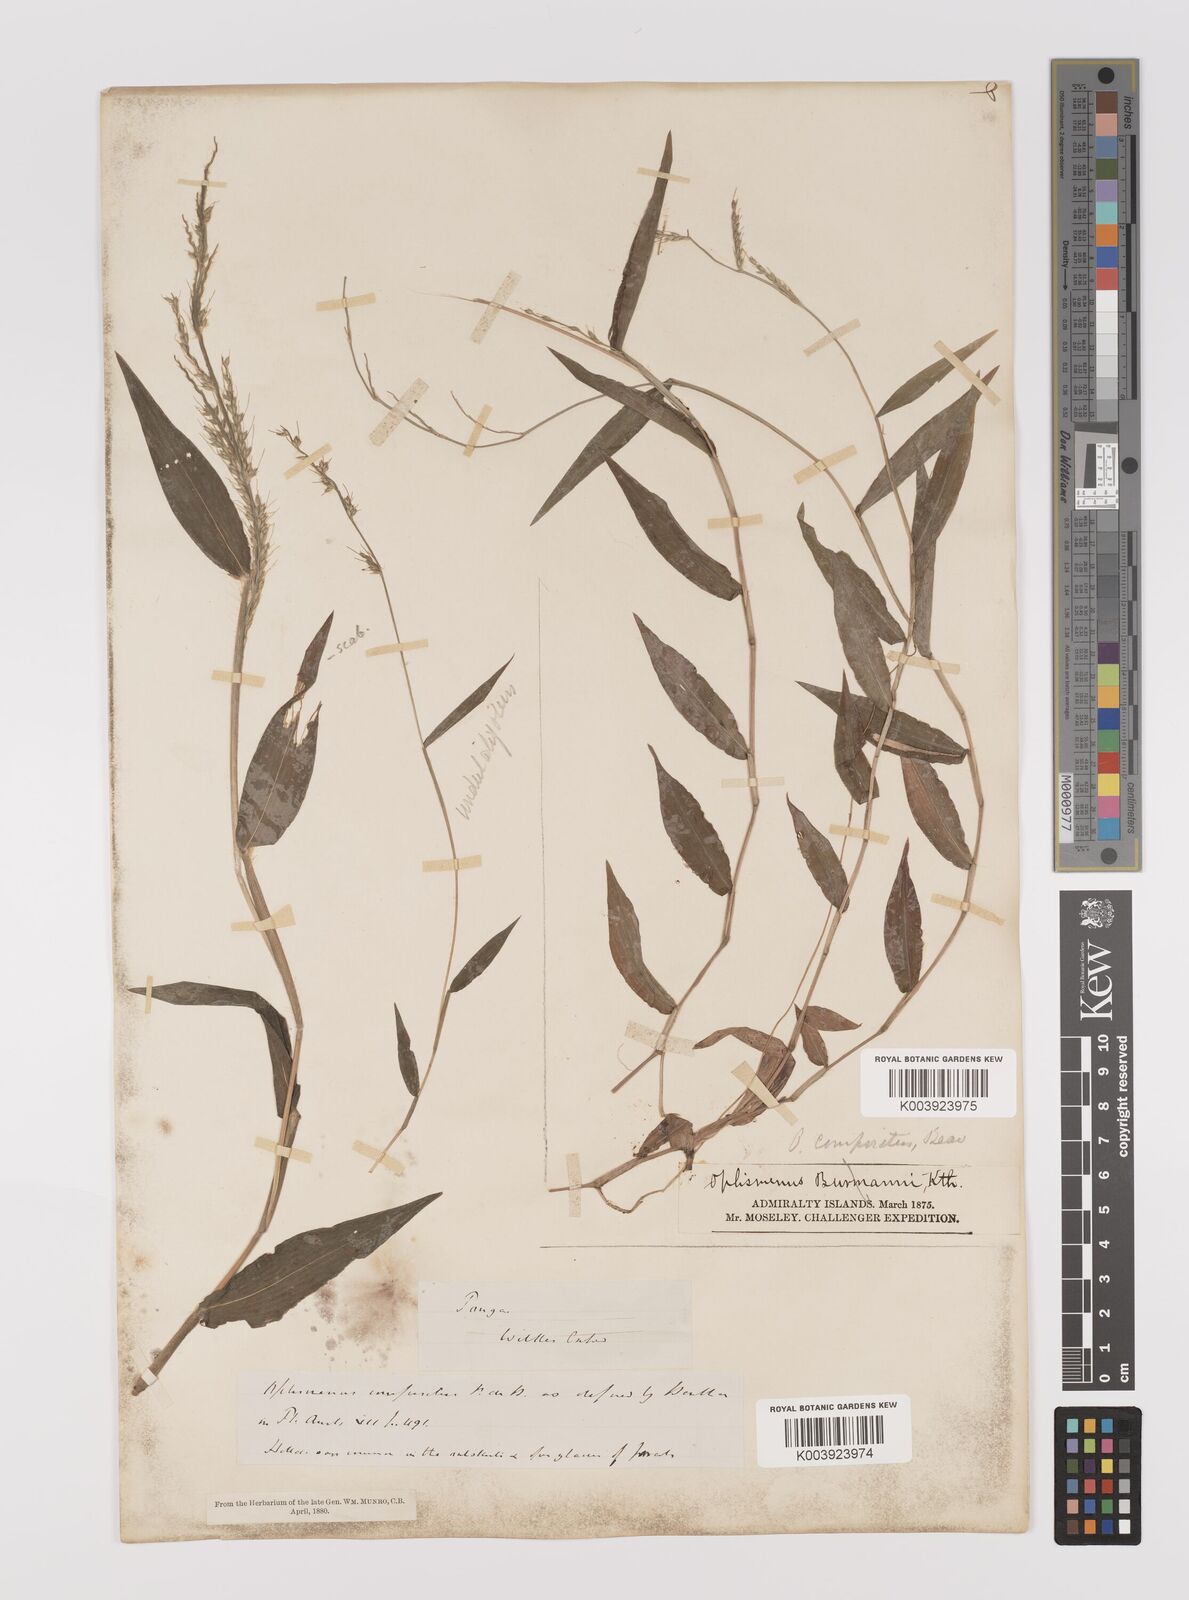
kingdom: Plantae
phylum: Tracheophyta
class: Liliopsida
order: Poales
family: Poaceae
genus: Oplismenus
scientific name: Oplismenus compositus
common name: Running mountain grass
